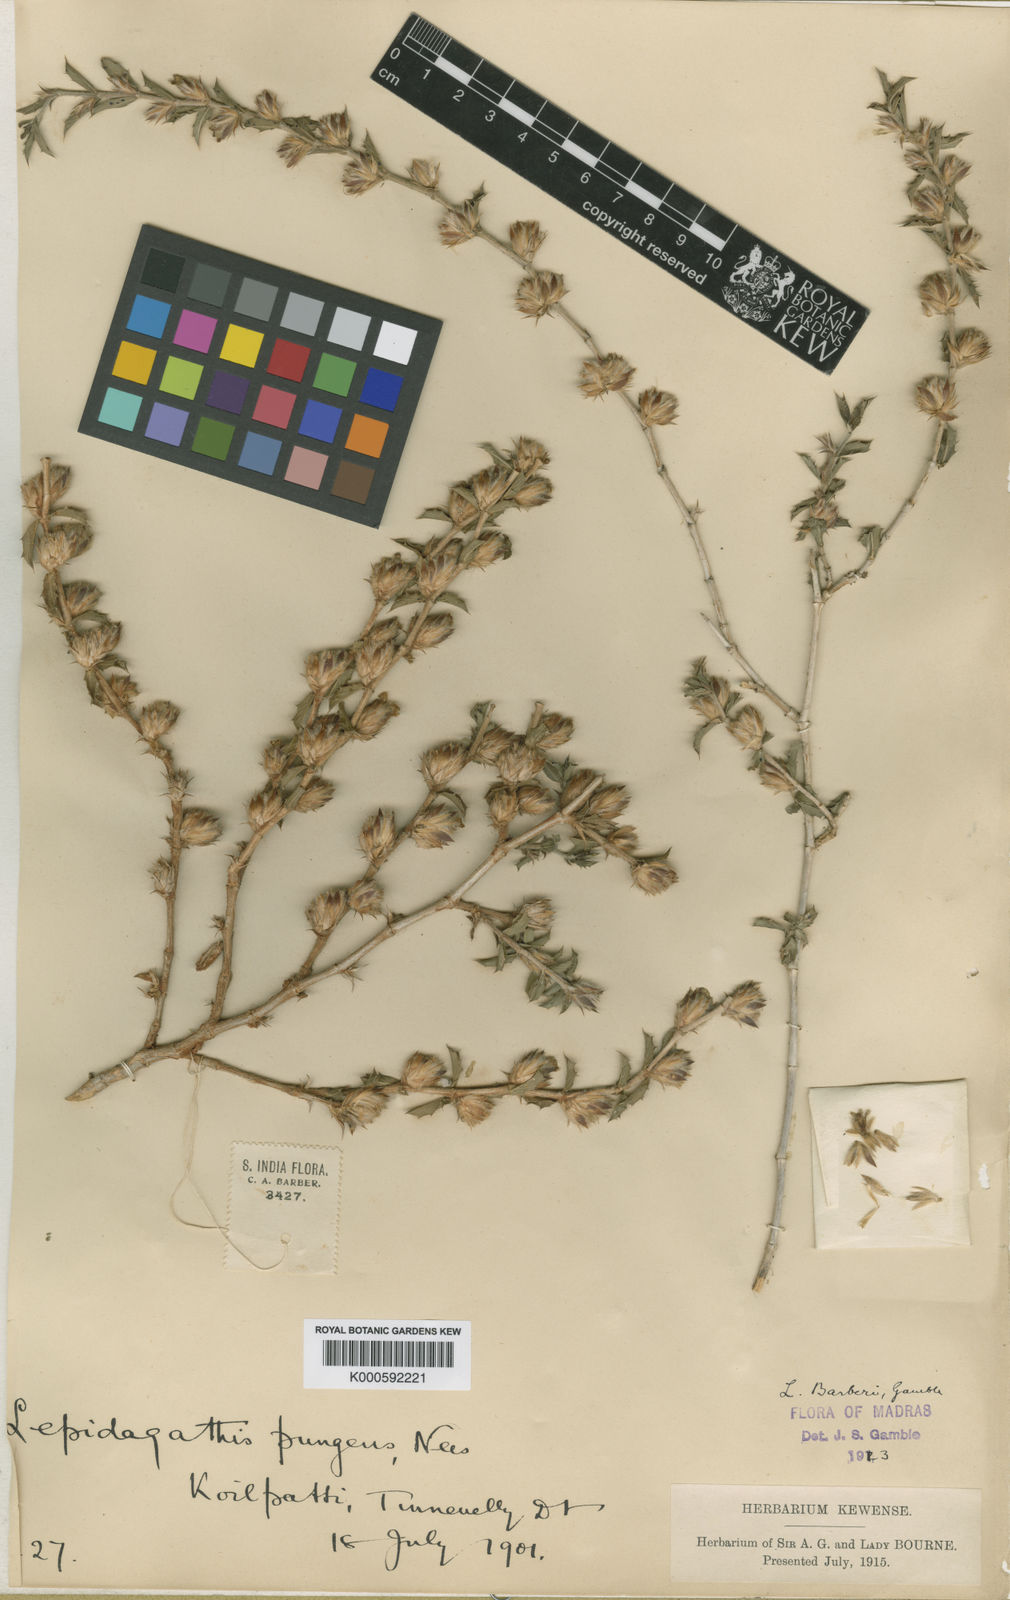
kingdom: Plantae
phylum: Tracheophyta
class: Magnoliopsida
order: Lamiales
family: Acanthaceae
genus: Lepidagathis
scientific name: Lepidagathis barberi
